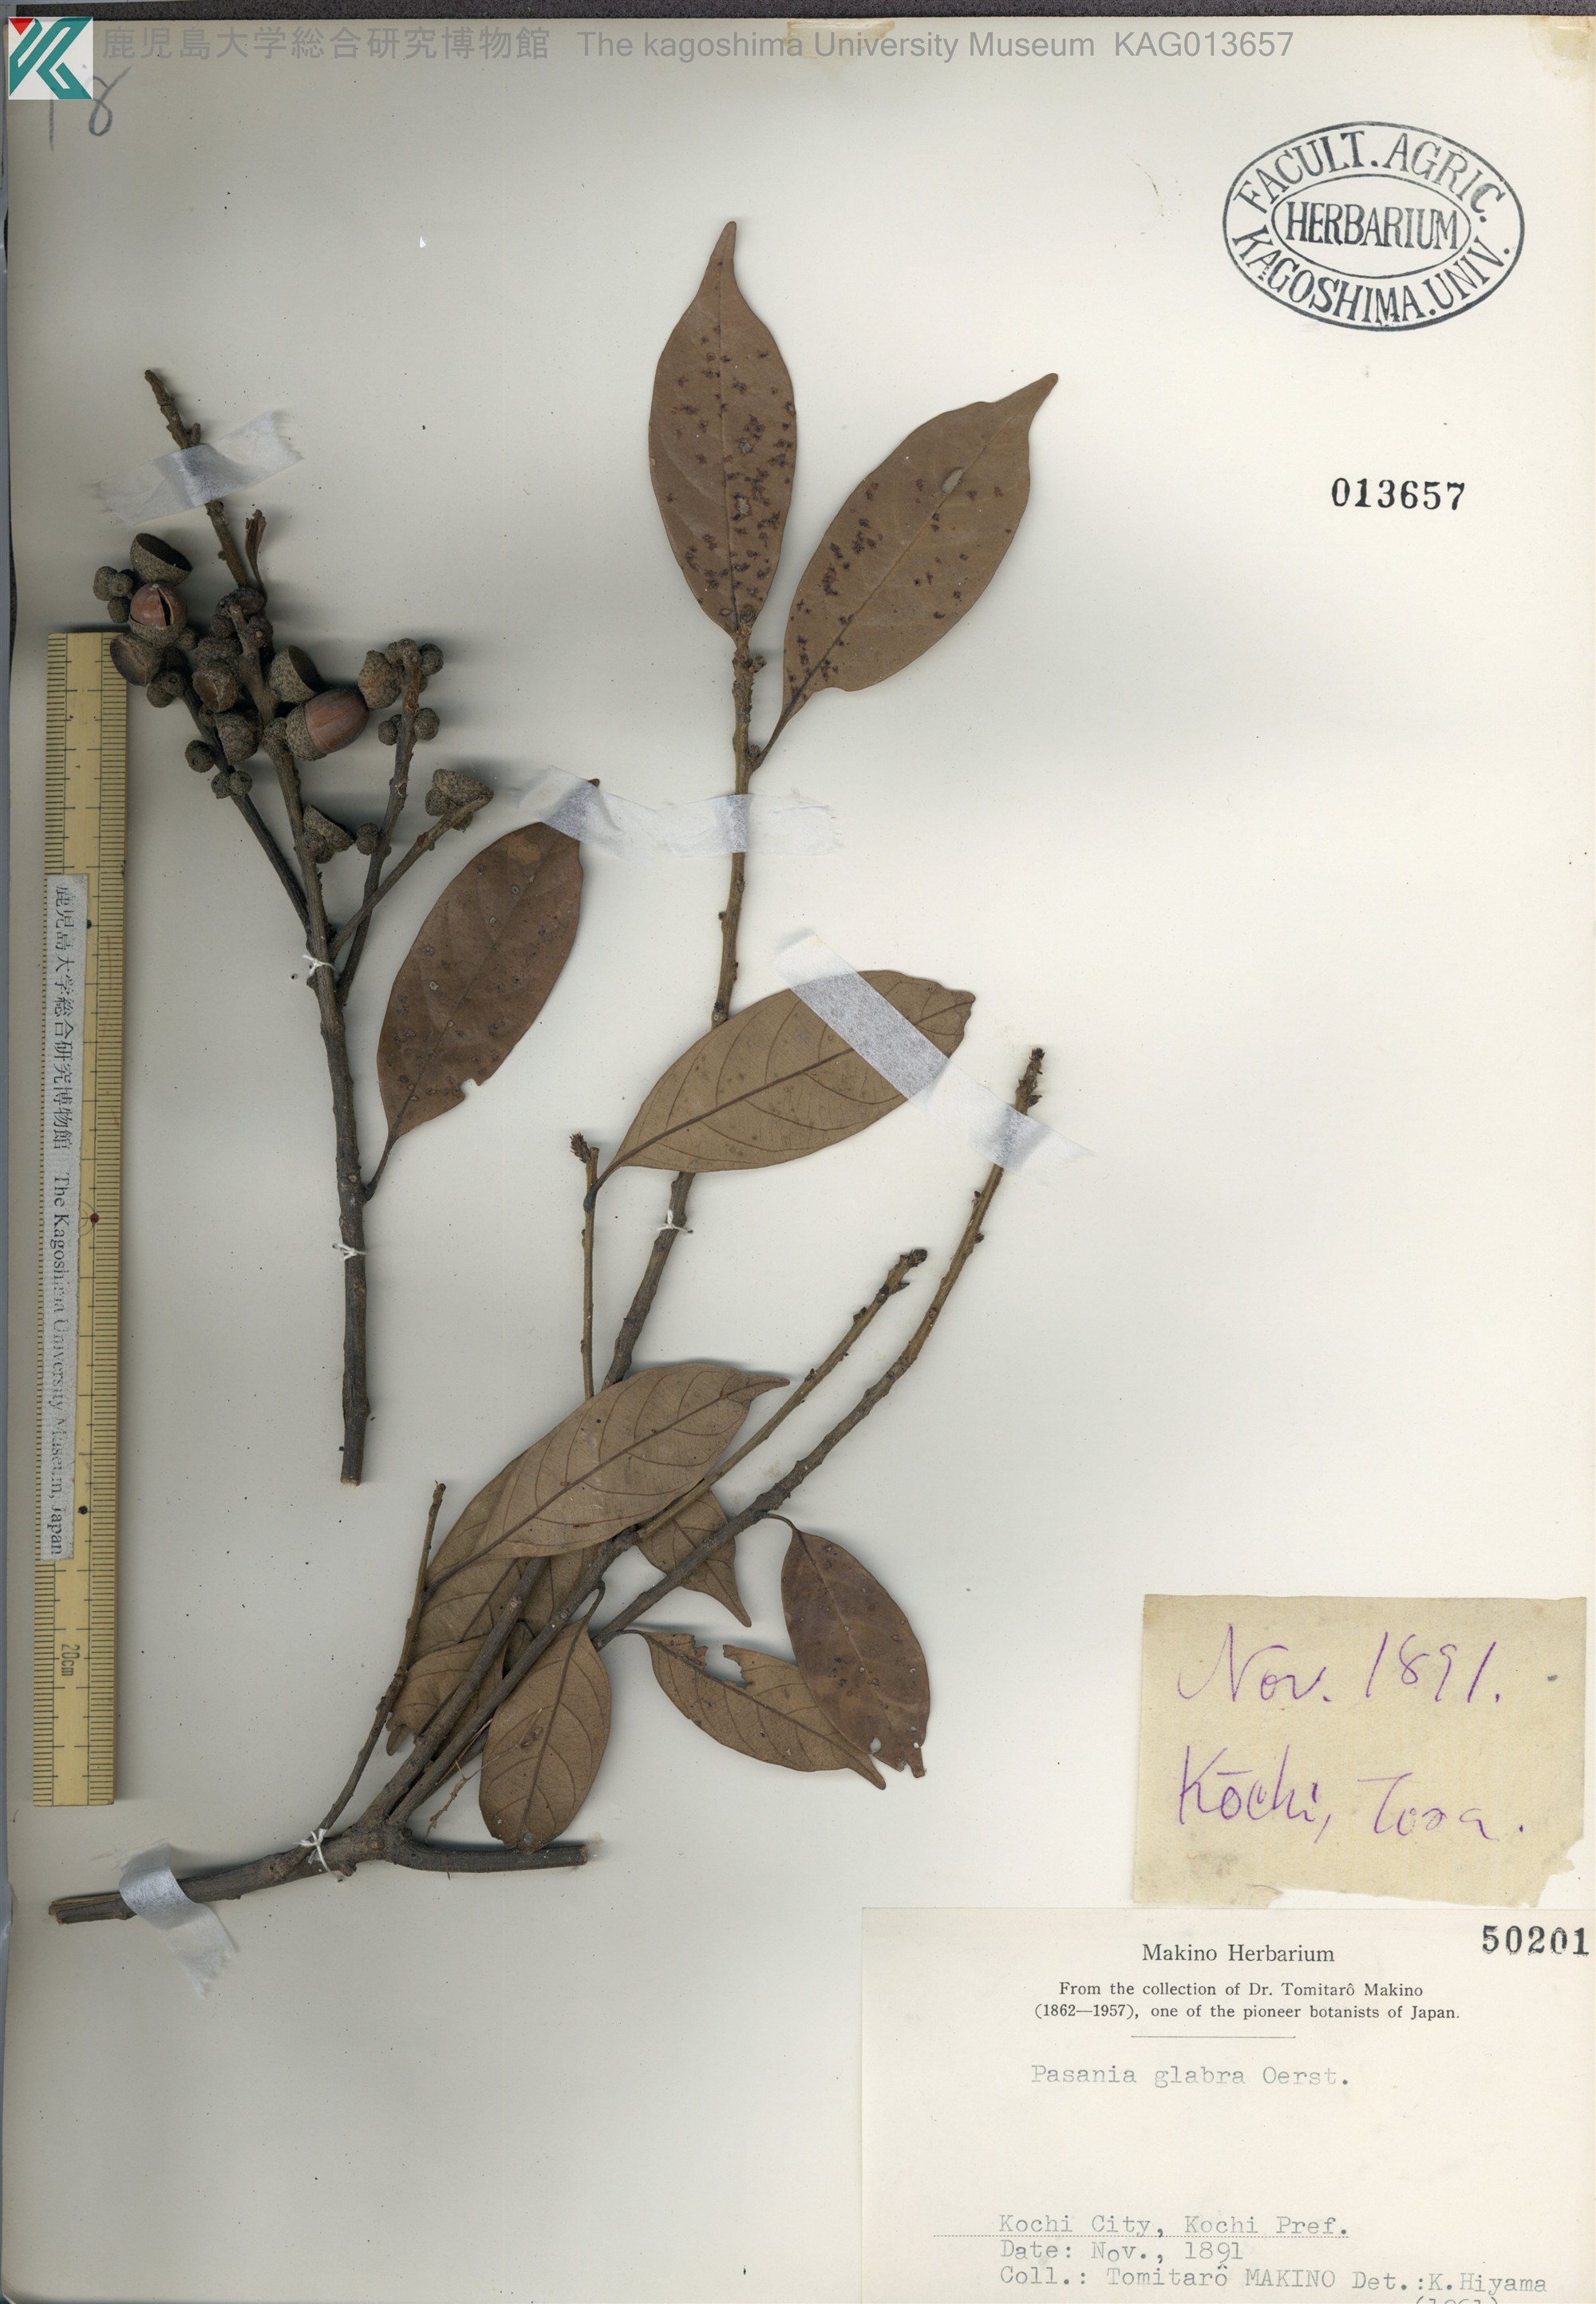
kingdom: Plantae
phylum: Tracheophyta
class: Magnoliopsida
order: Fagales
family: Fagaceae
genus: Lithocarpus
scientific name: Lithocarpus glaber
